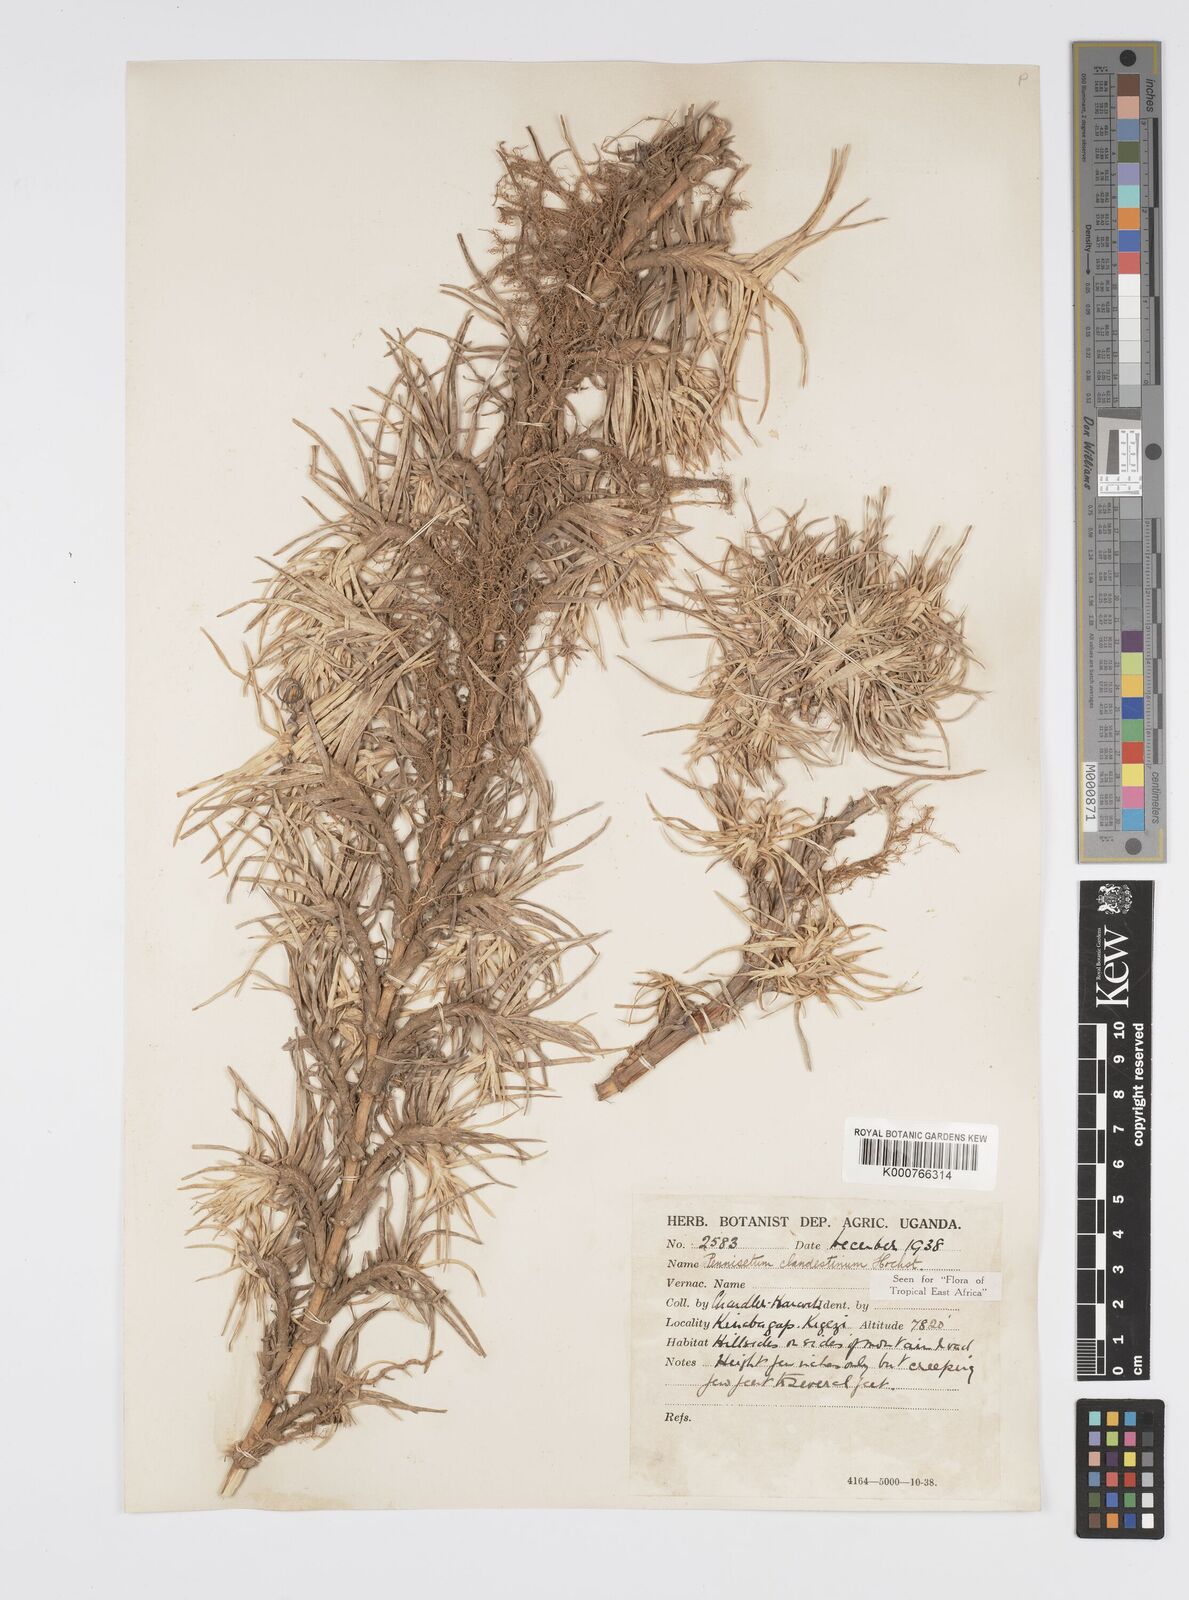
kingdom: Plantae
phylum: Tracheophyta
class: Liliopsida
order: Poales
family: Poaceae
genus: Cenchrus
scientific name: Cenchrus clandestinus
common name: Kikuyugrass
